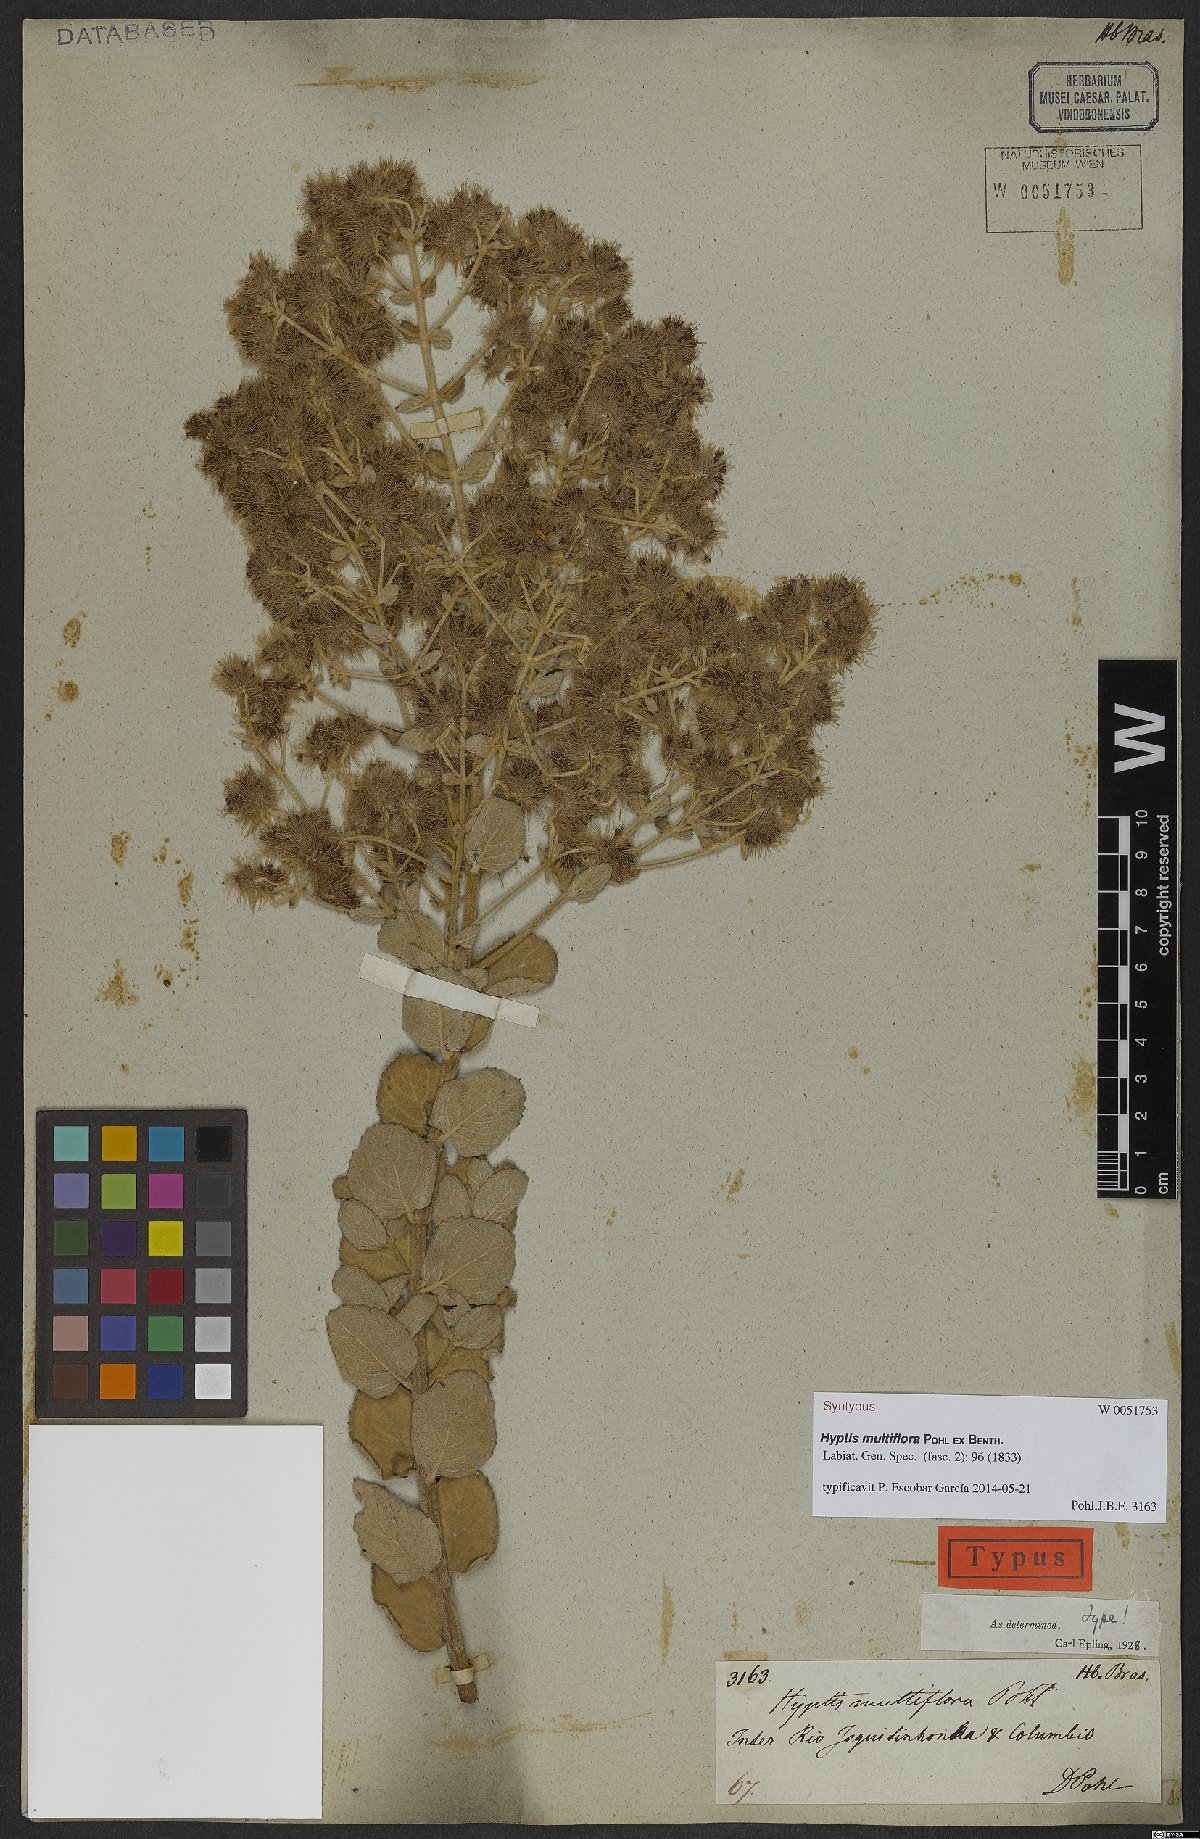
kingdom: Plantae
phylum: Tracheophyta
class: Magnoliopsida
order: Lamiales
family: Lamiaceae
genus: Medusantha
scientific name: Medusantha multiflora
